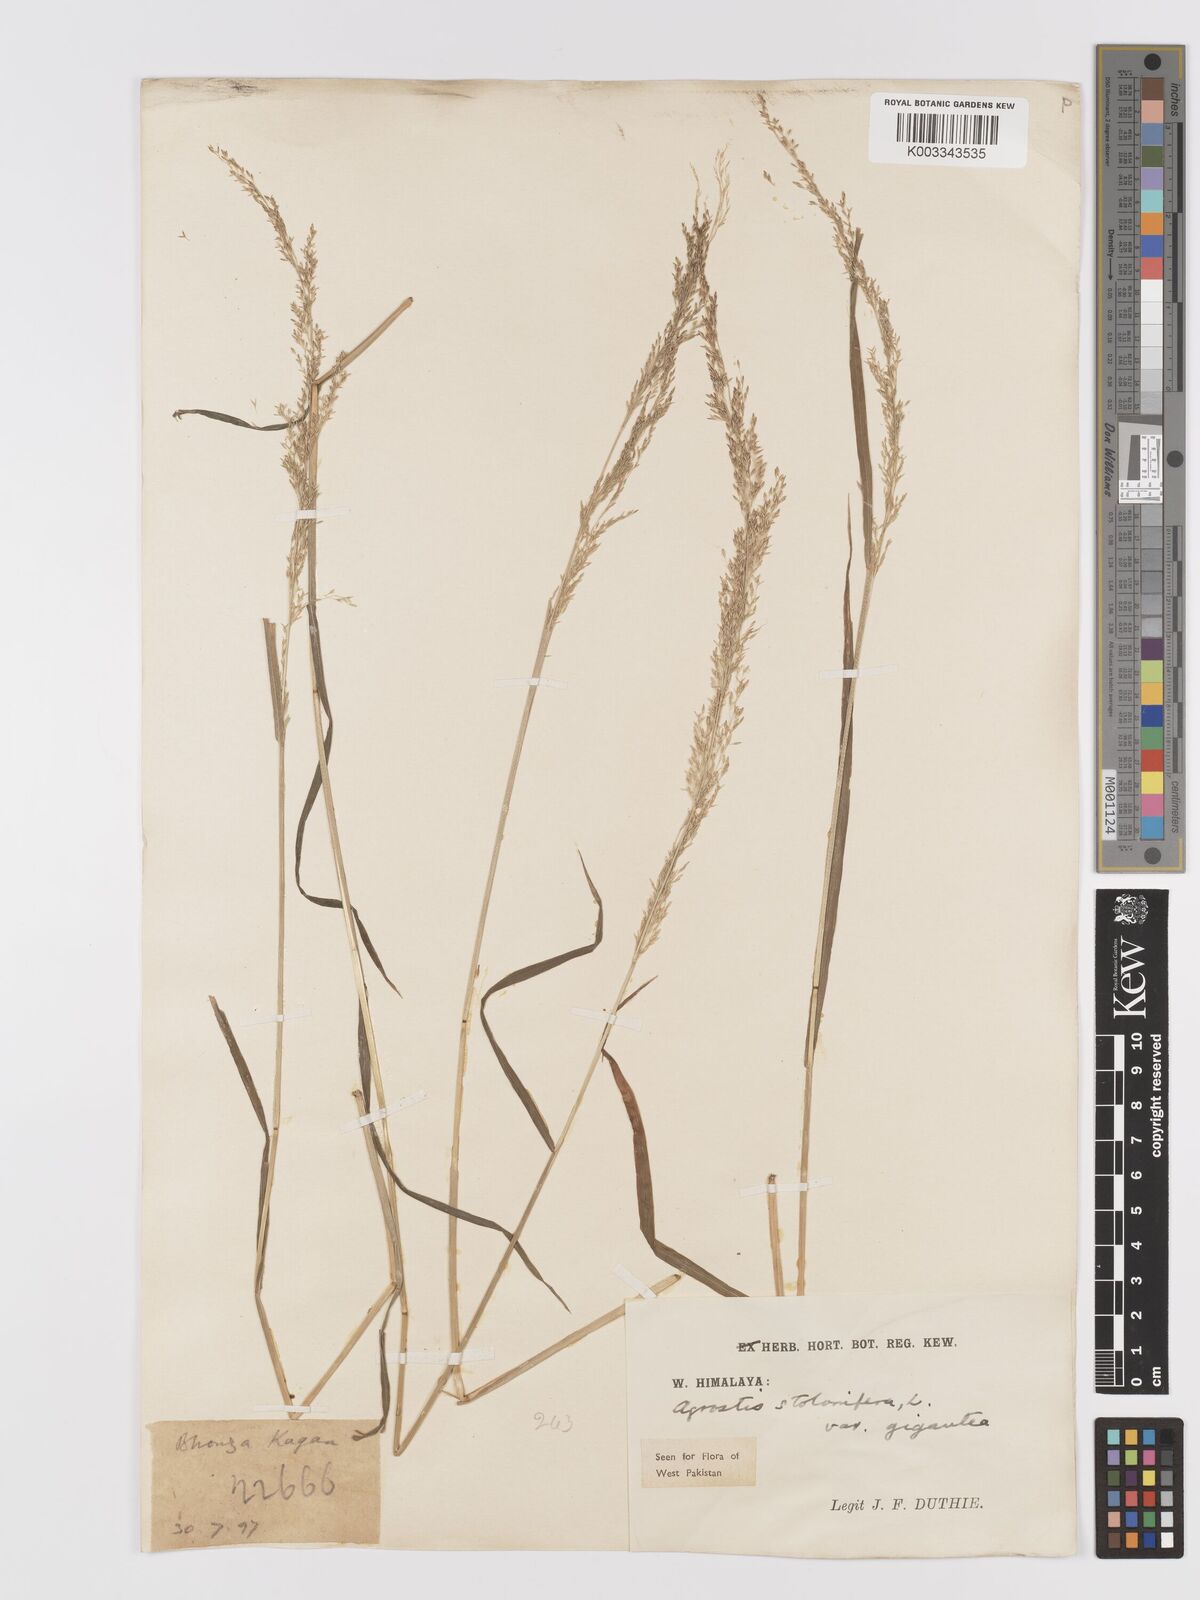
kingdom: Plantae
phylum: Tracheophyta
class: Liliopsida
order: Poales
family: Poaceae
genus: Agrostis
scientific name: Agrostis gigantea
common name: Black bent
